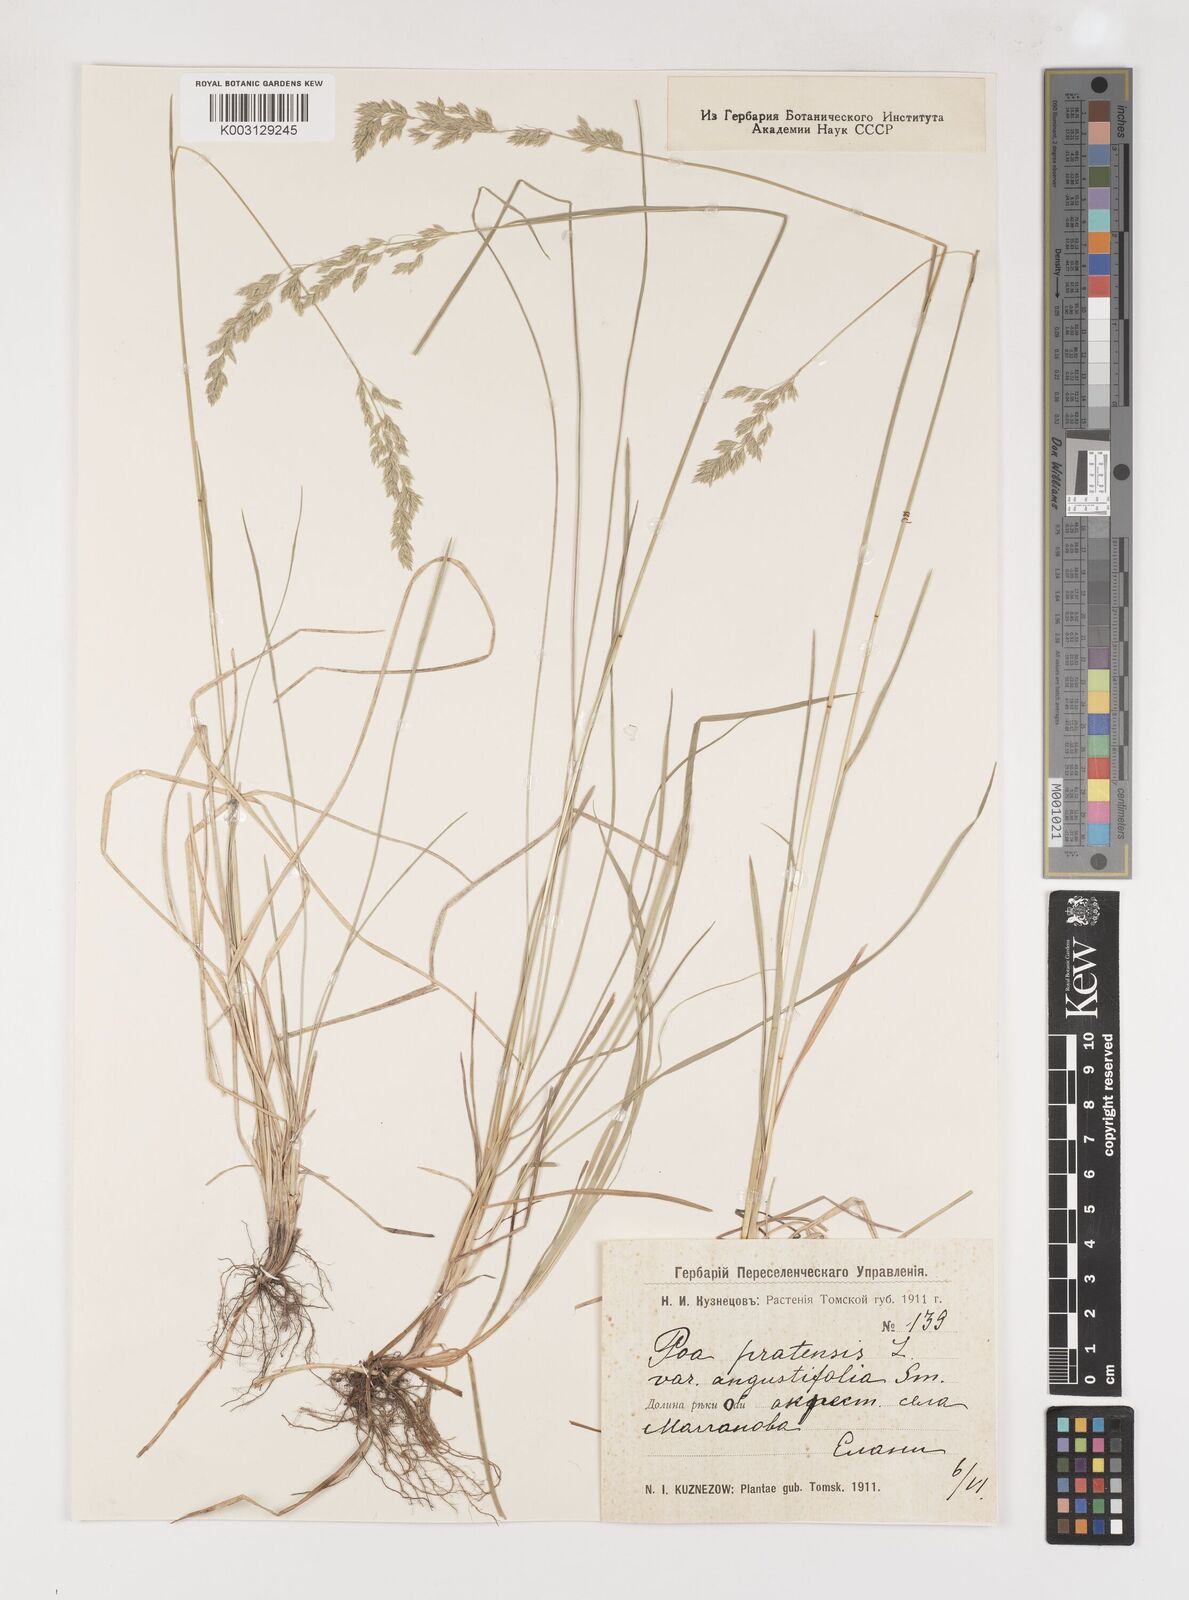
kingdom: Plantae
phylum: Tracheophyta
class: Liliopsida
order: Poales
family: Poaceae
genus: Poa
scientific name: Poa angustifolia
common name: Narrow-leaved meadow-grass
